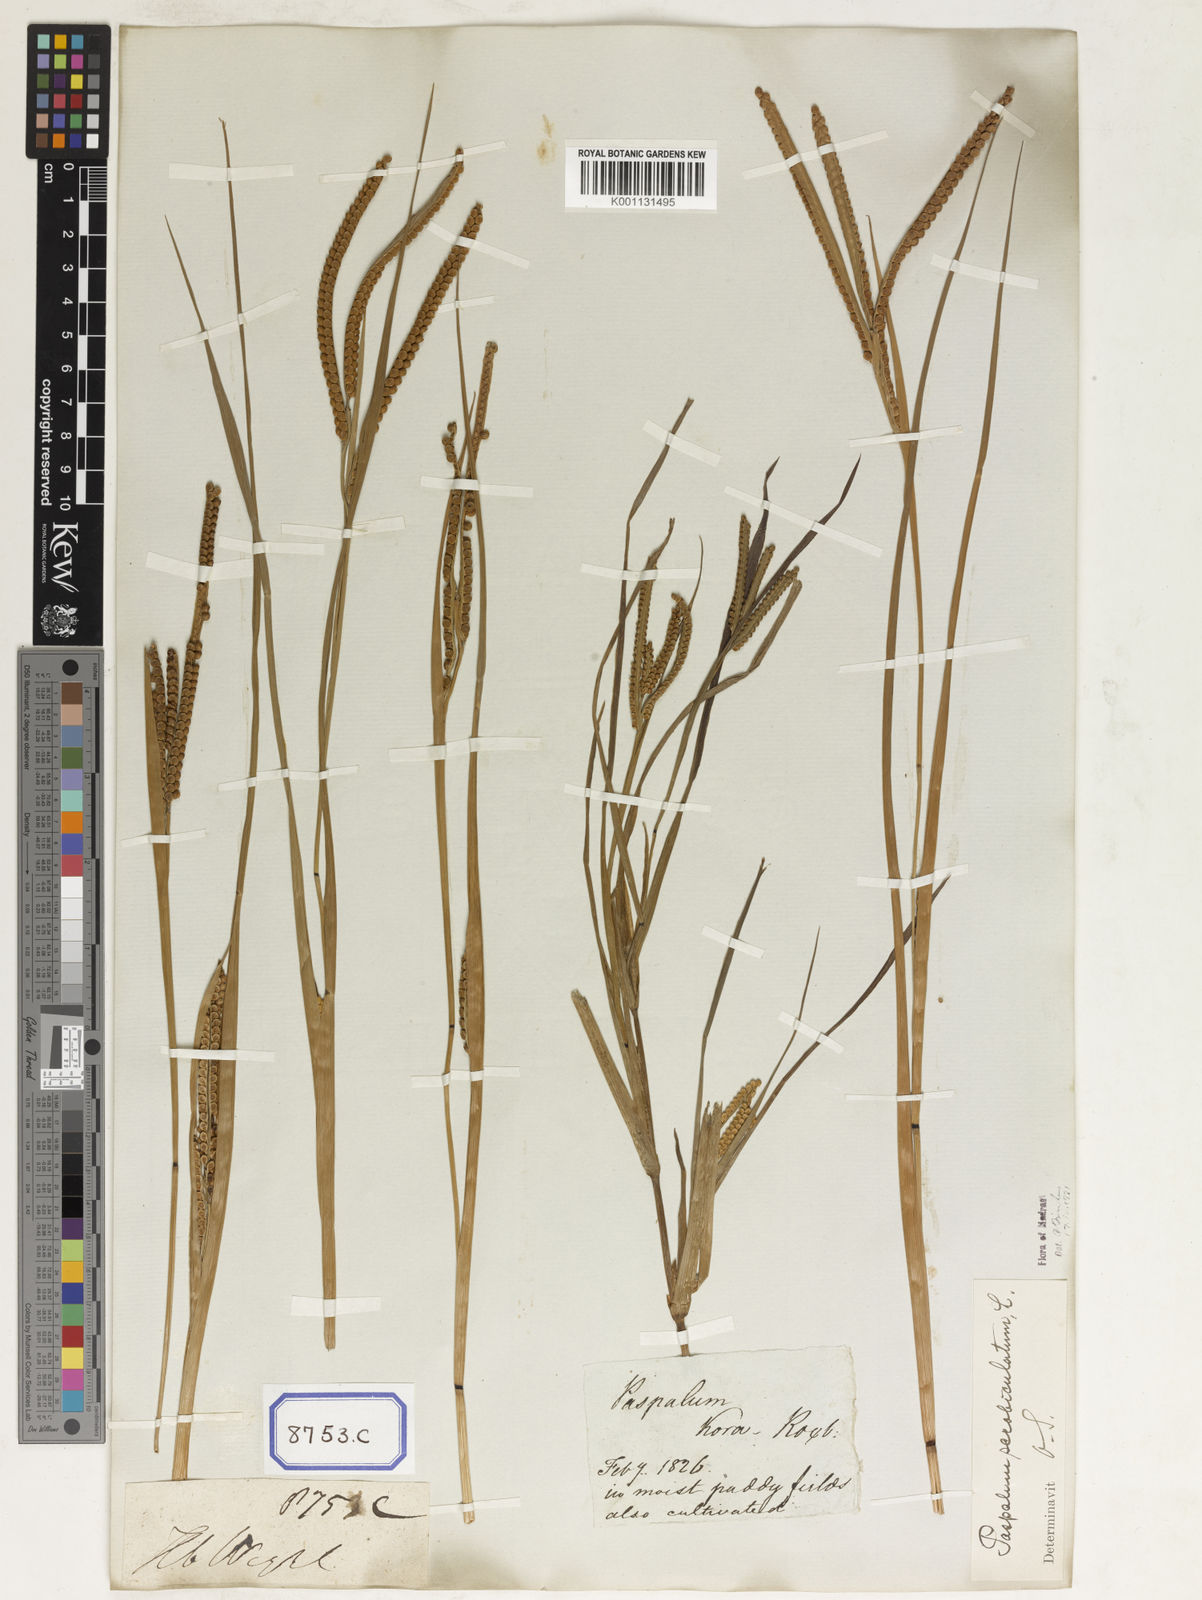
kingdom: Plantae
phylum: Tracheophyta
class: Liliopsida
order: Poales
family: Poaceae
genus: Paspalum
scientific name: Paspalum scrobiculatum
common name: Kodo millet
